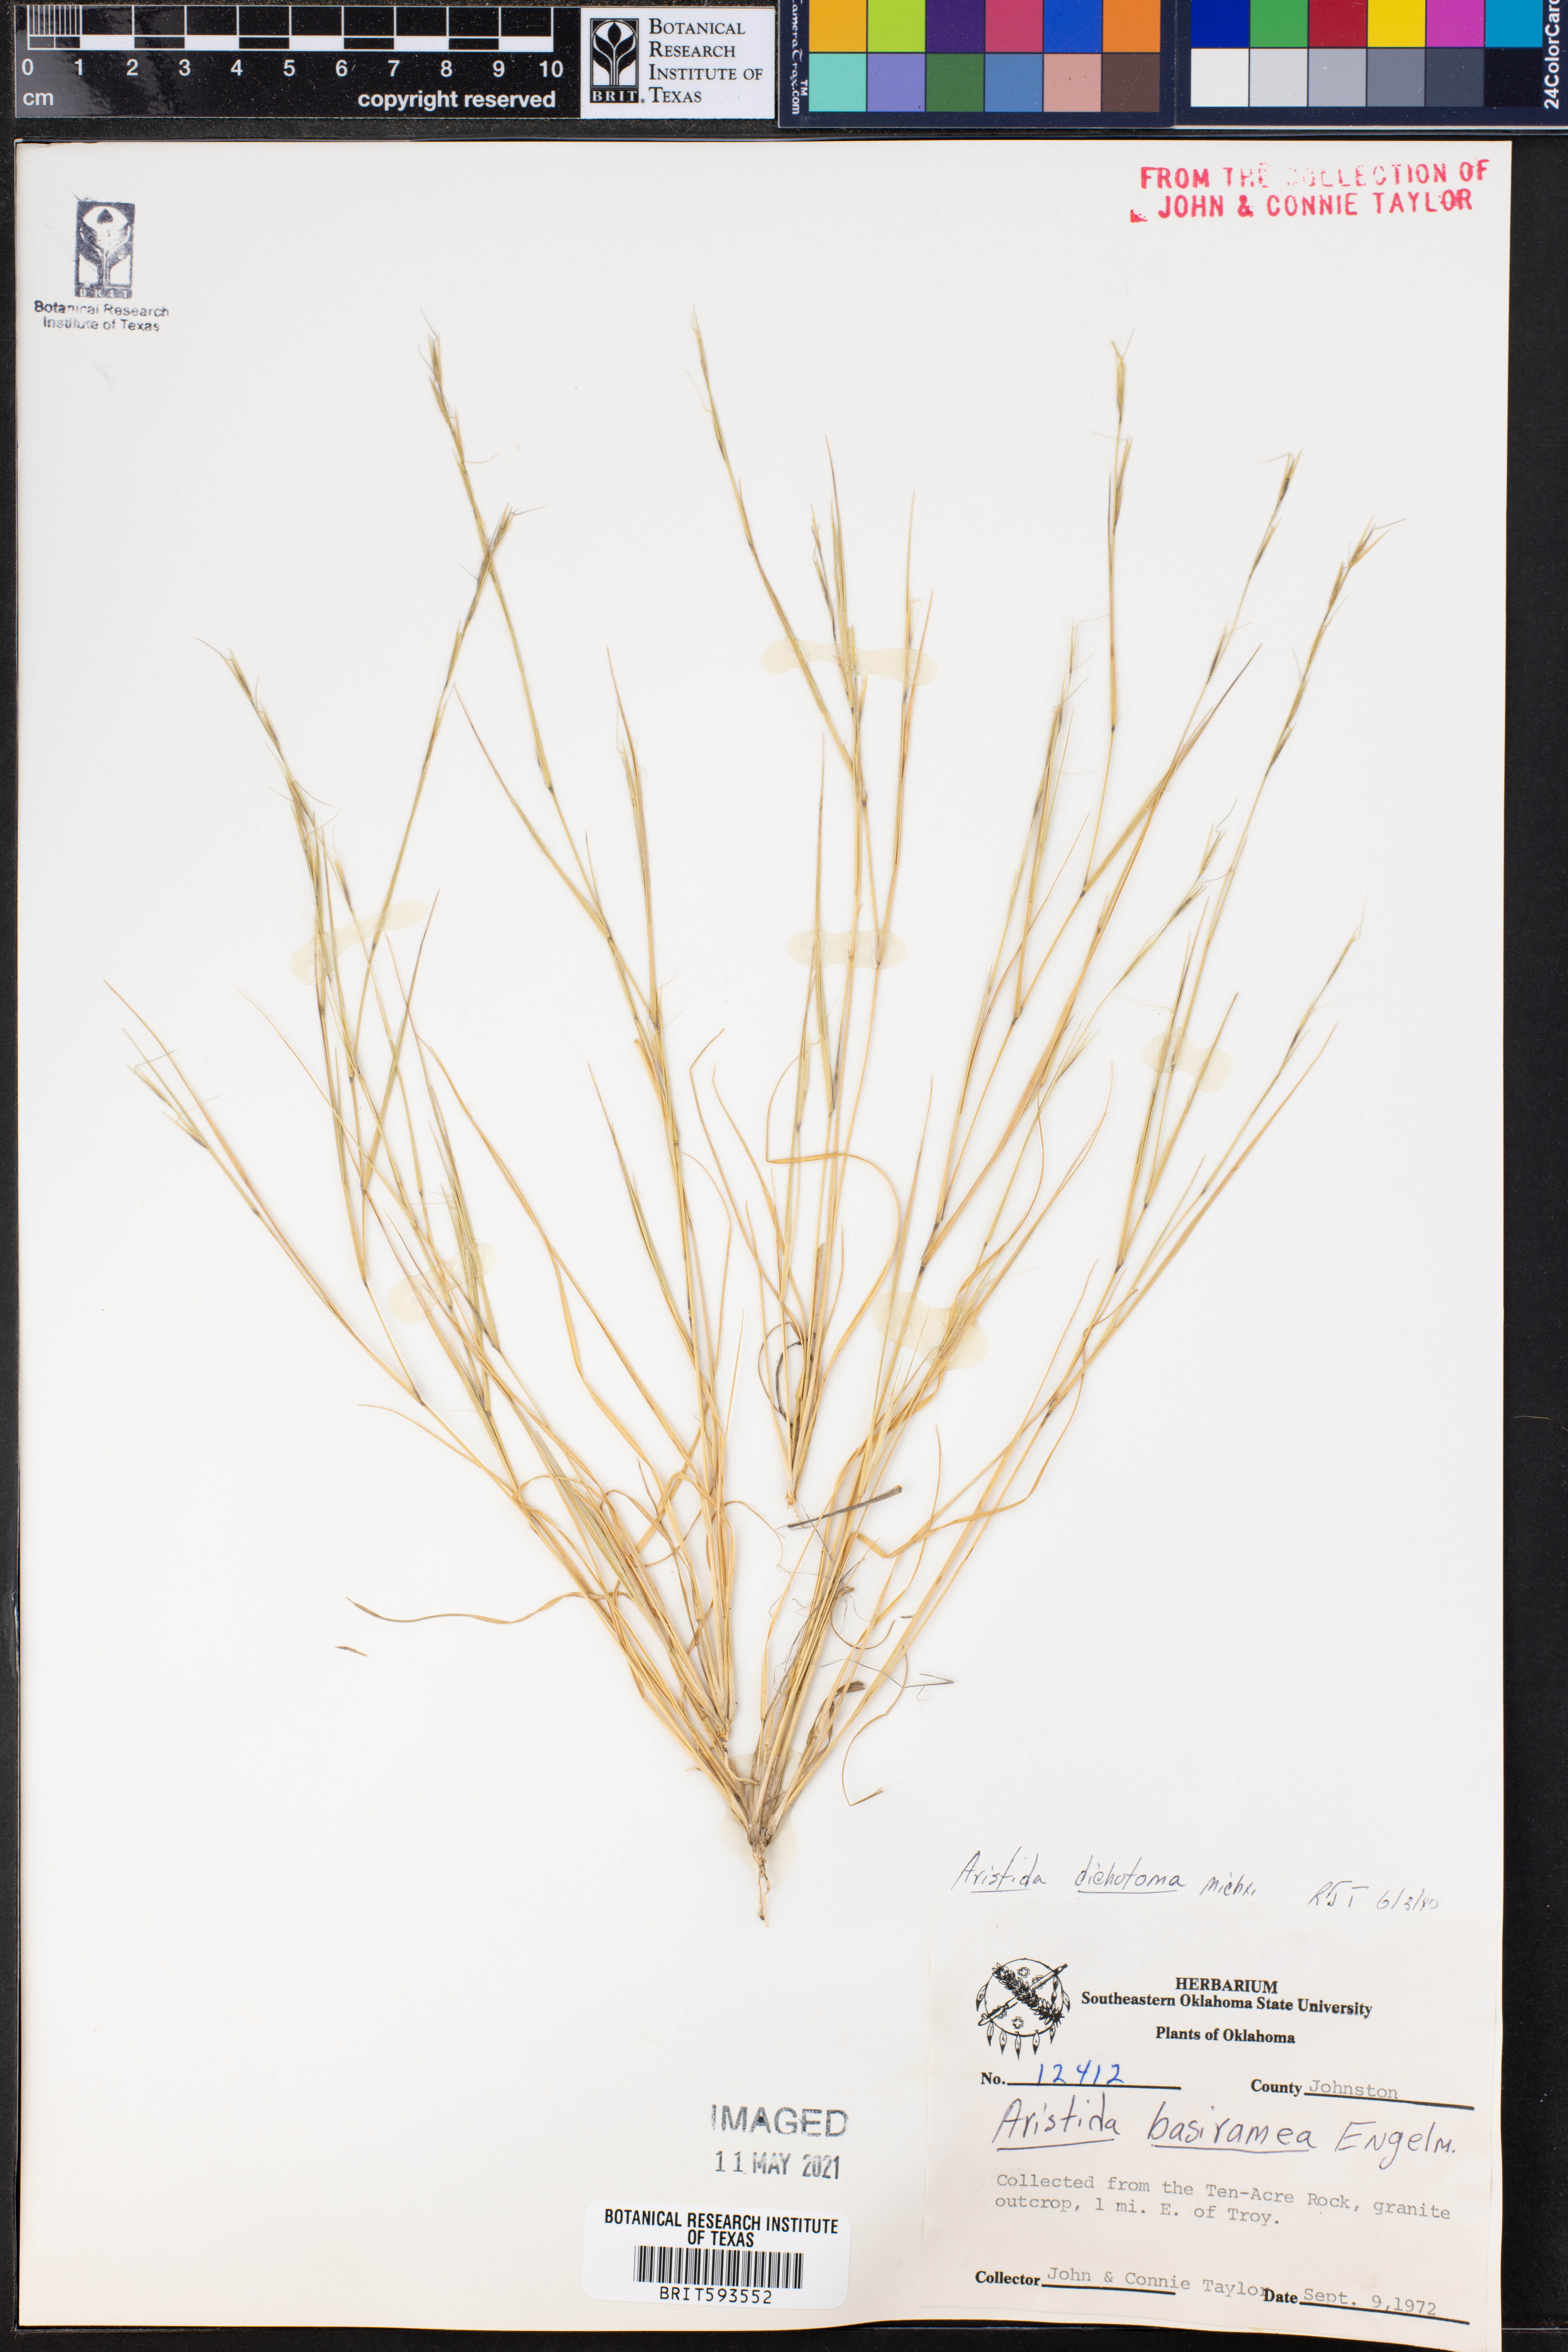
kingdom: Plantae
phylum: Tracheophyta
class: Liliopsida
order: Poales
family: Poaceae
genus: Aristida
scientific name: Aristida dichotoma
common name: Churchmouse three-awn
